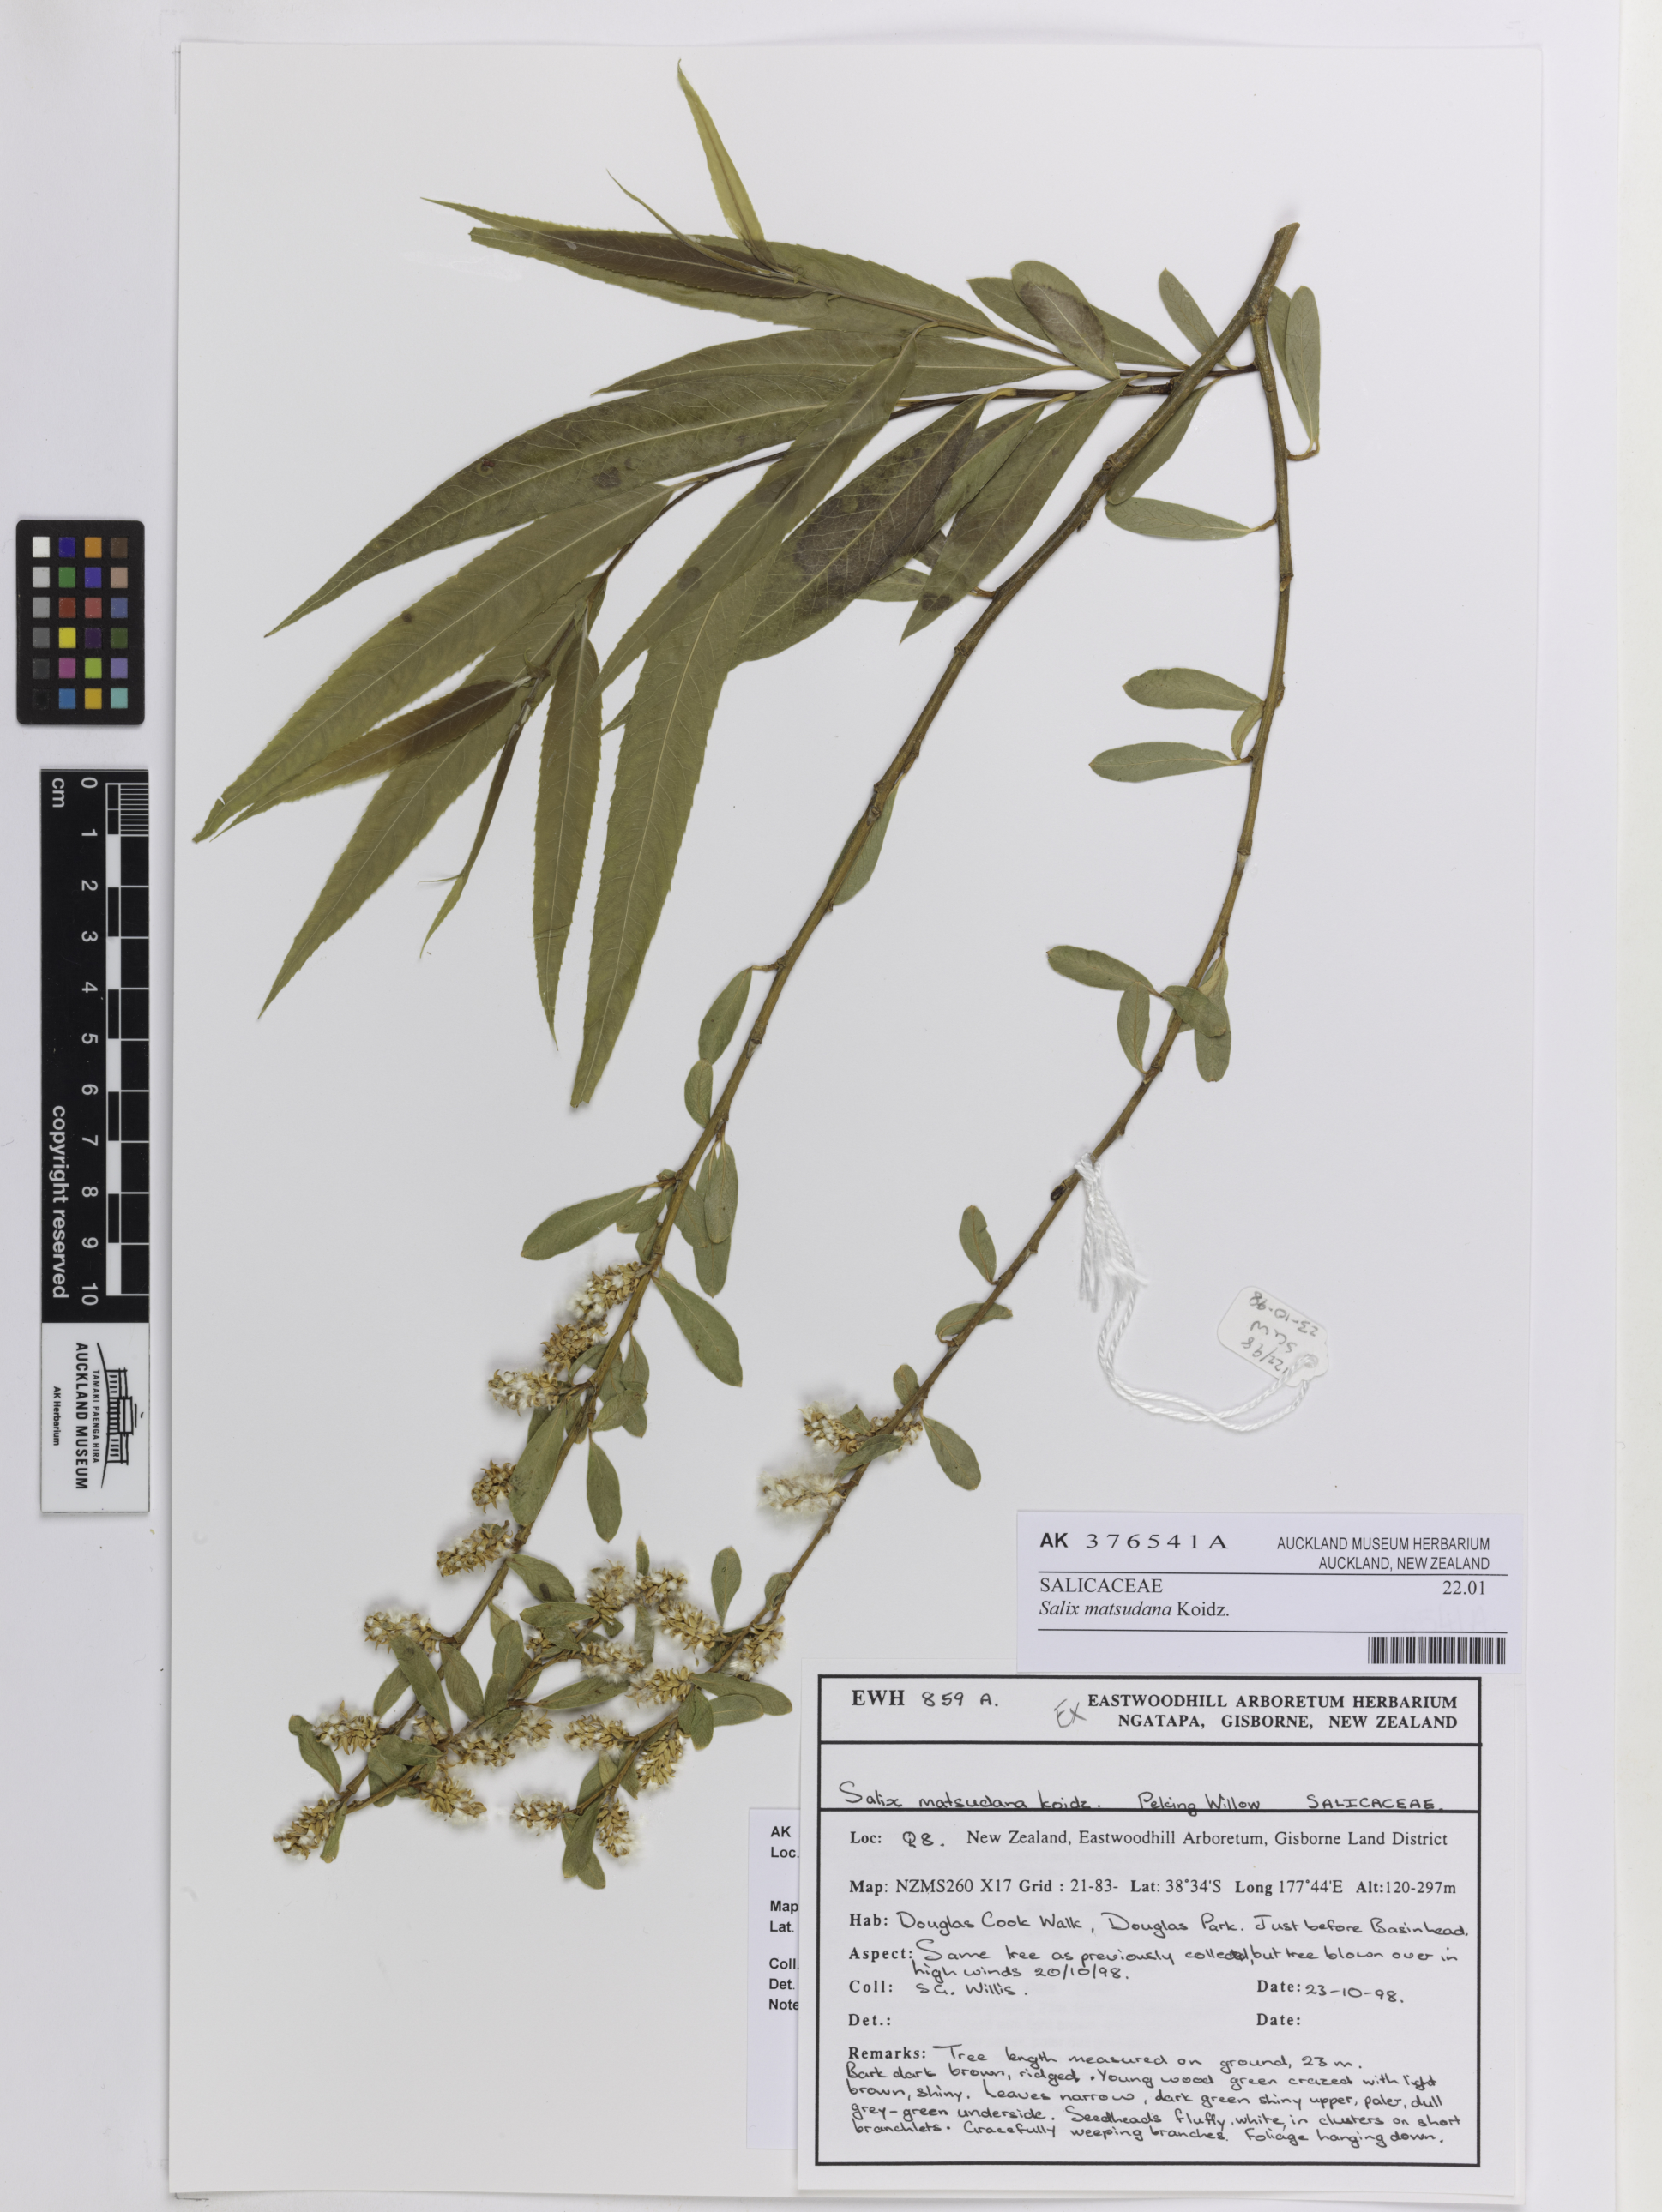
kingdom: Plantae
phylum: Tracheophyta
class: Magnoliopsida
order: Malpighiales
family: Salicaceae
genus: Salix
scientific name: Salix matsudana
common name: Peking willow
